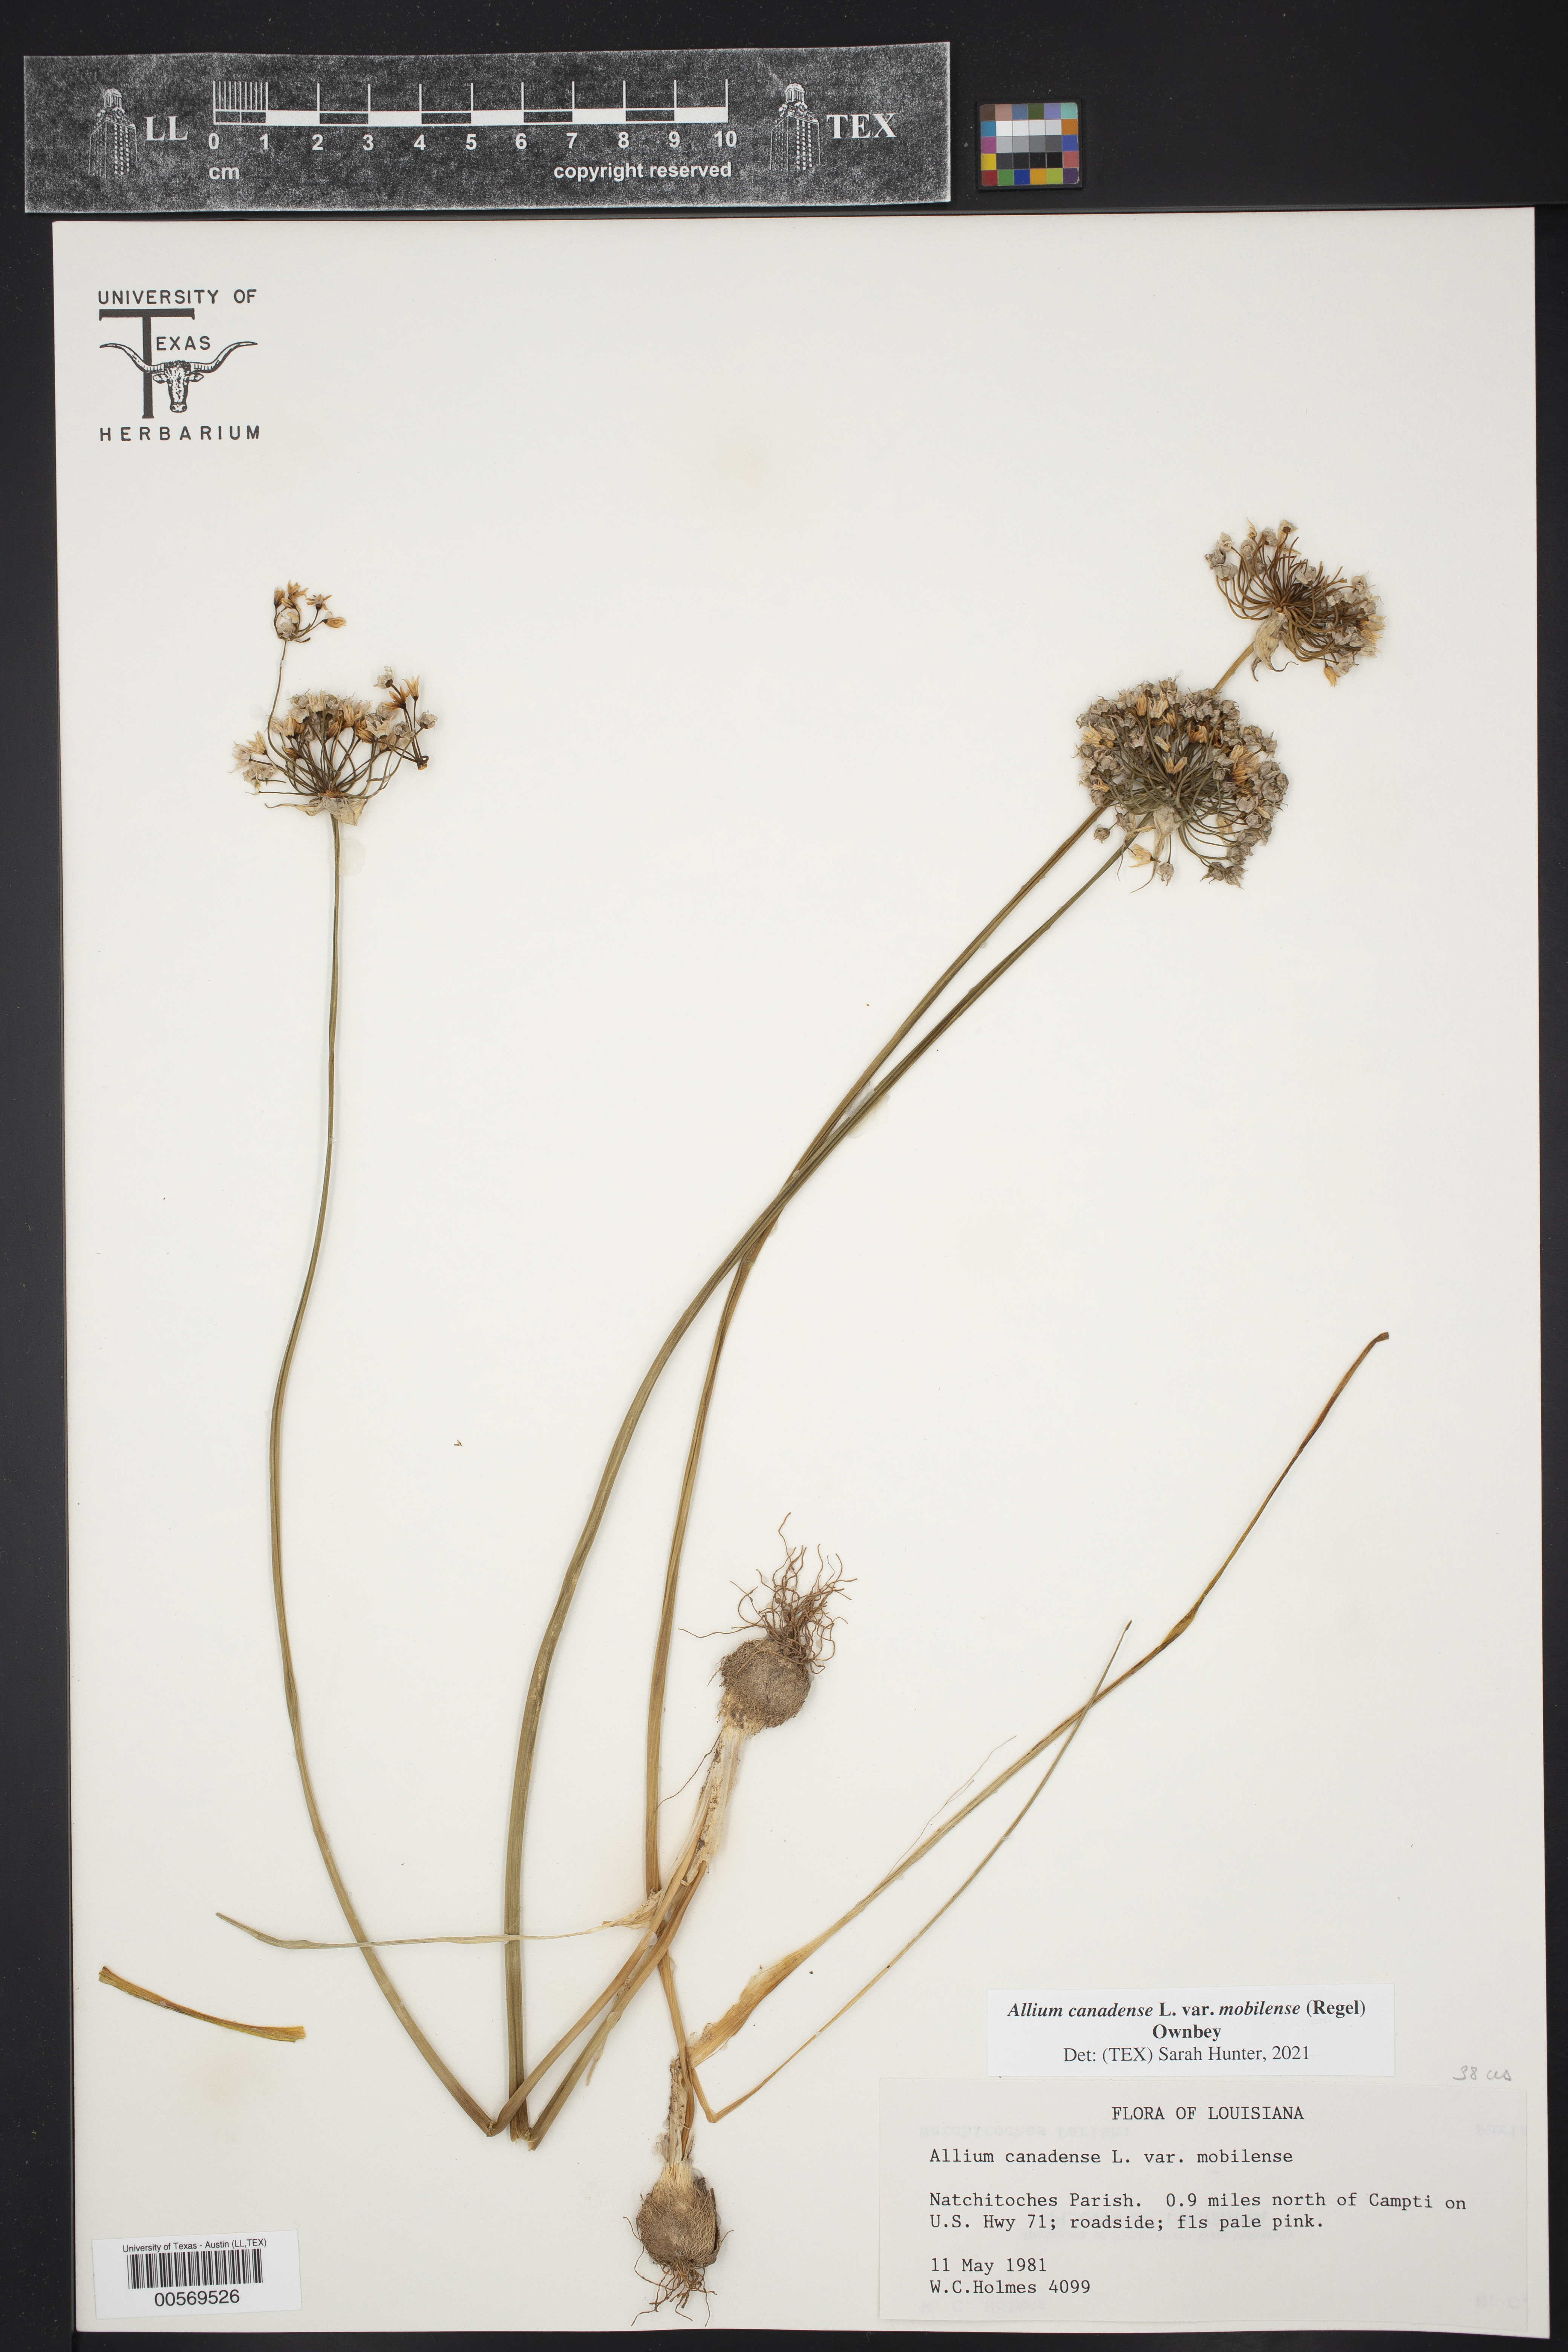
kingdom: Plantae
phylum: Tracheophyta
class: Liliopsida
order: Asparagales
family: Amaryllidaceae
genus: Allium
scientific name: Allium canadense
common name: Meadow garlic
